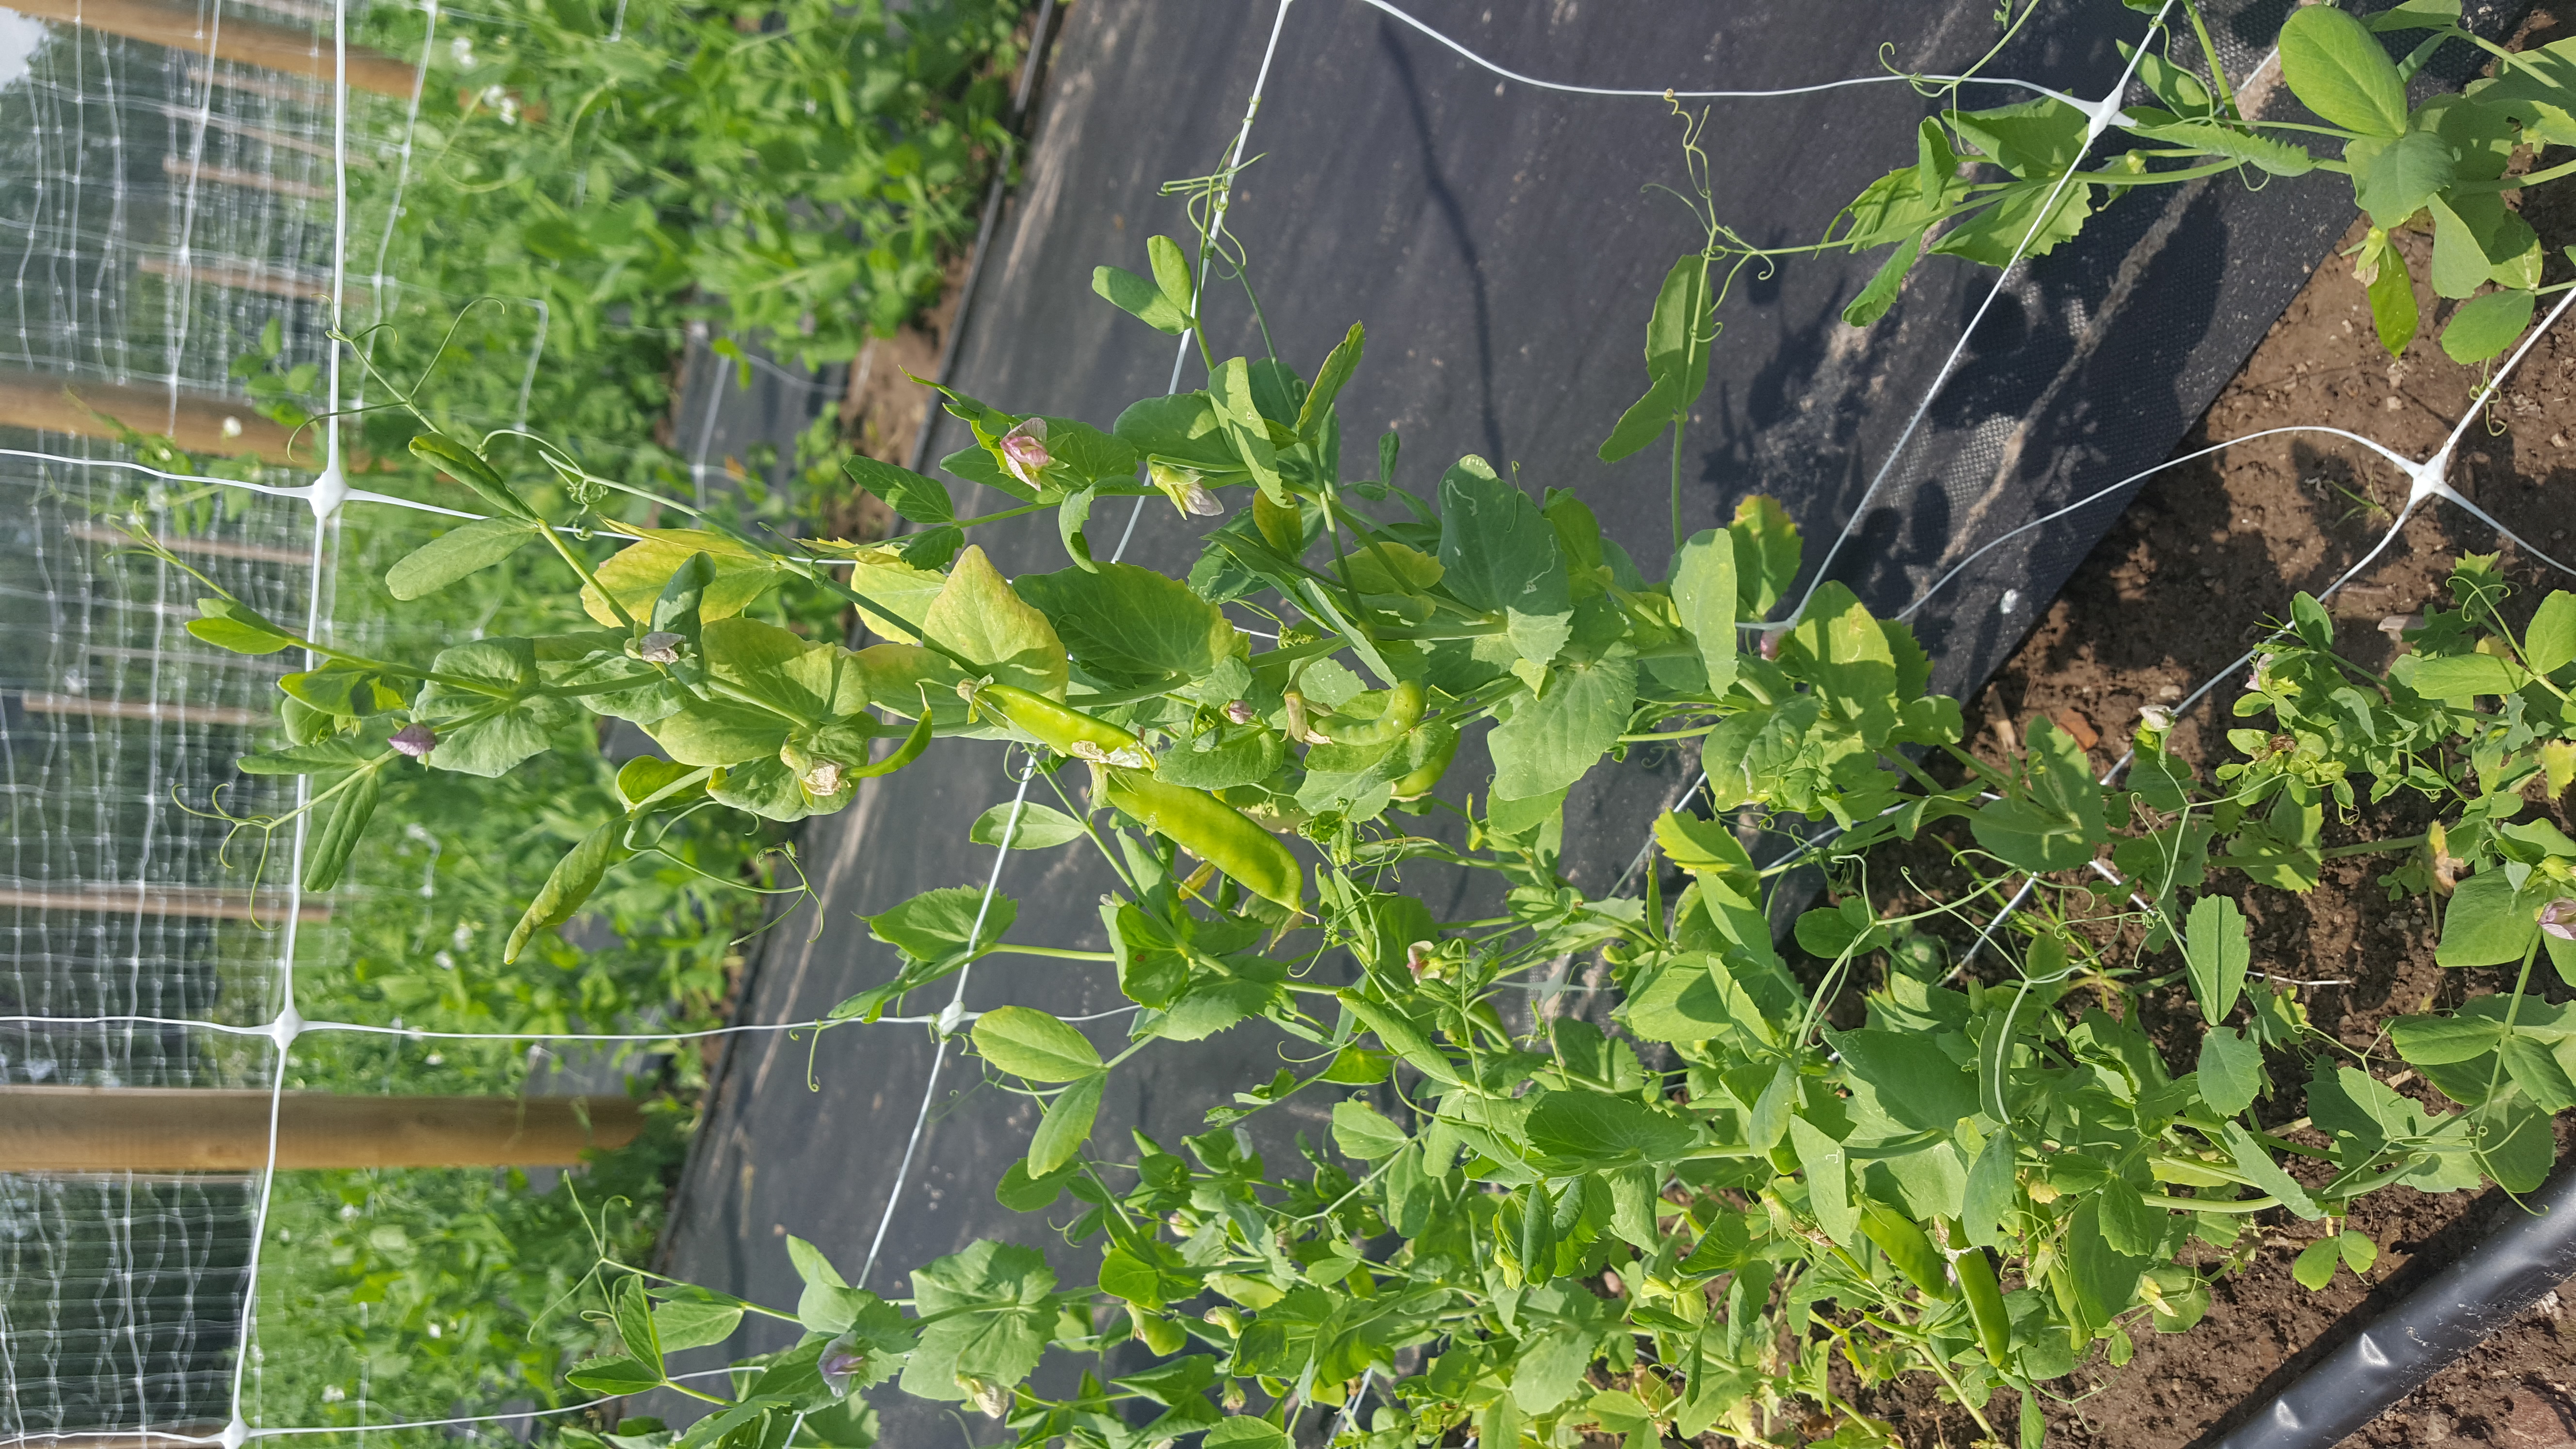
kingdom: Plantae
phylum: Tracheophyta
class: Magnoliopsida
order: Fabales
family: Fabaceae
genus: Lathyrus
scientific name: Lathyrus oleraceus
